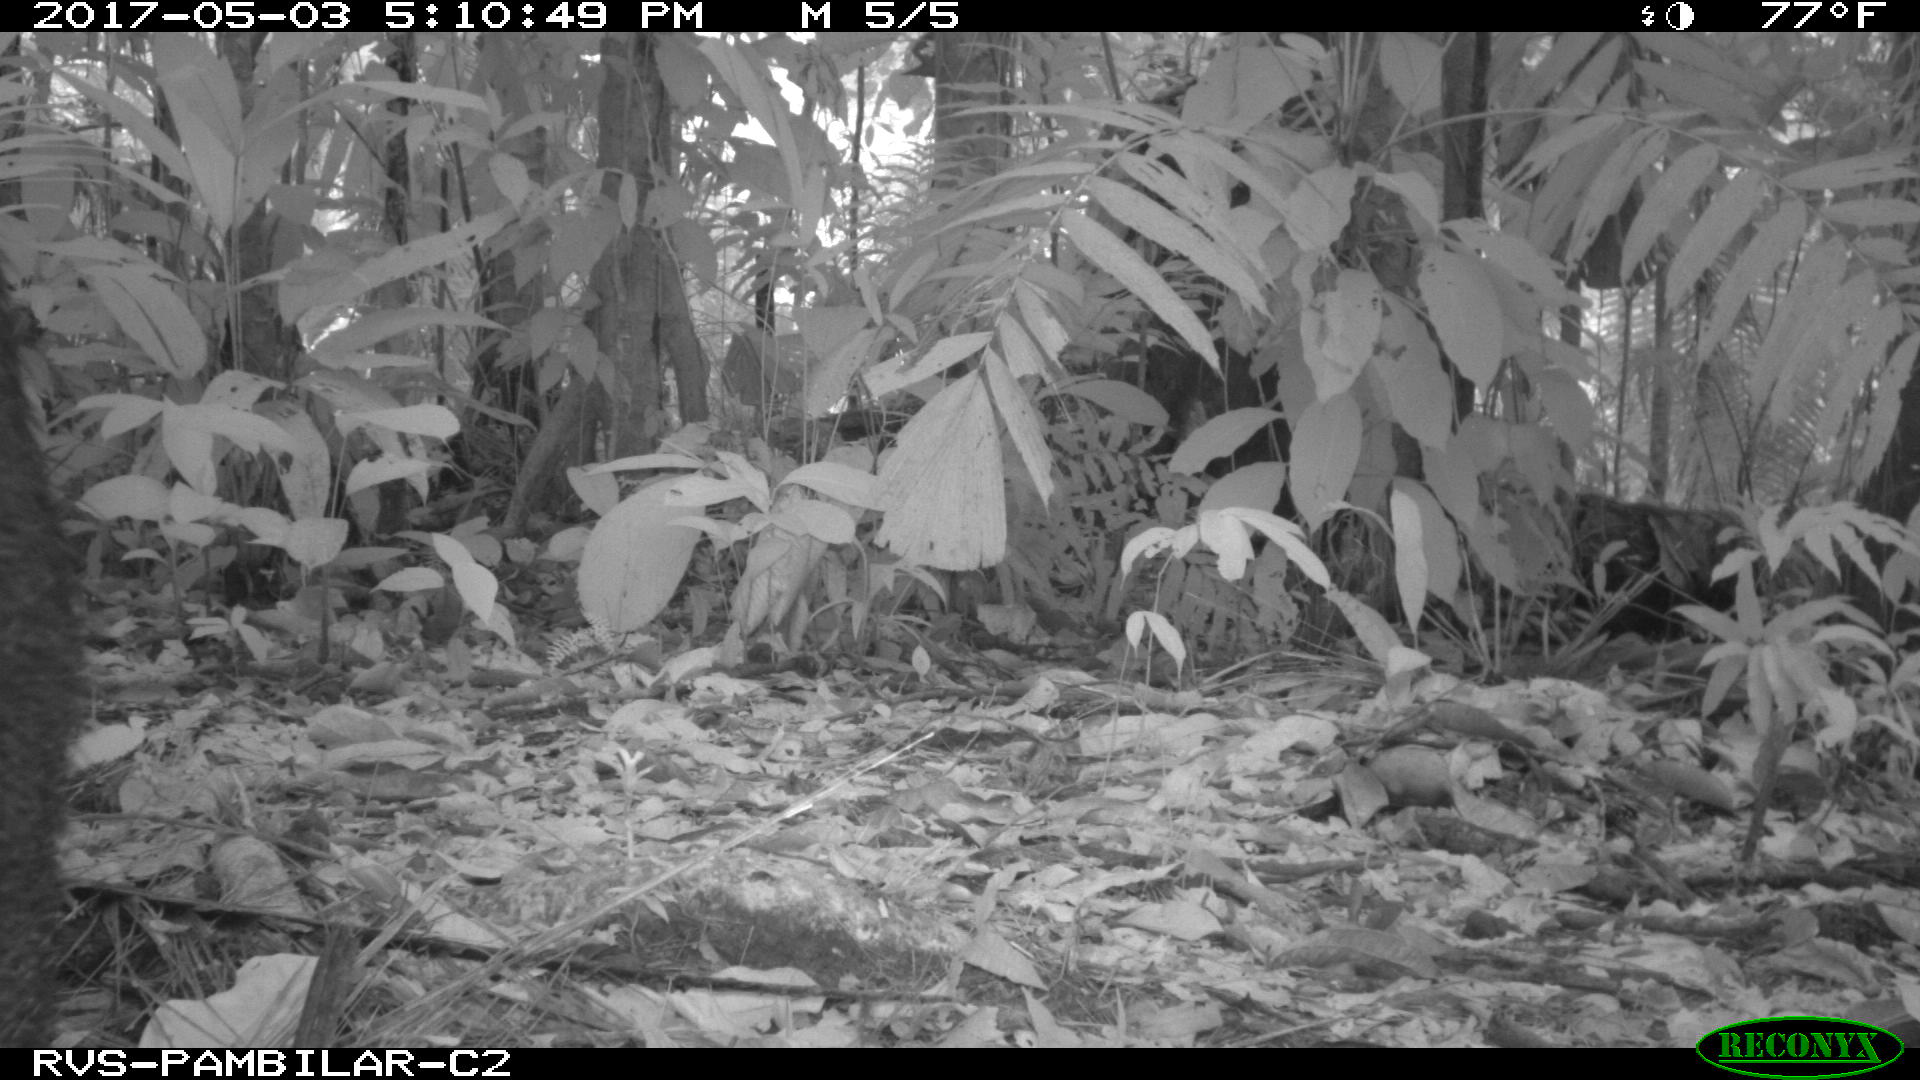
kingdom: Animalia
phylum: Chordata
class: Mammalia
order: Artiodactyla
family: Tayassuidae
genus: Tayassu
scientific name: Tayassu pecari
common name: White-lipped peccary
